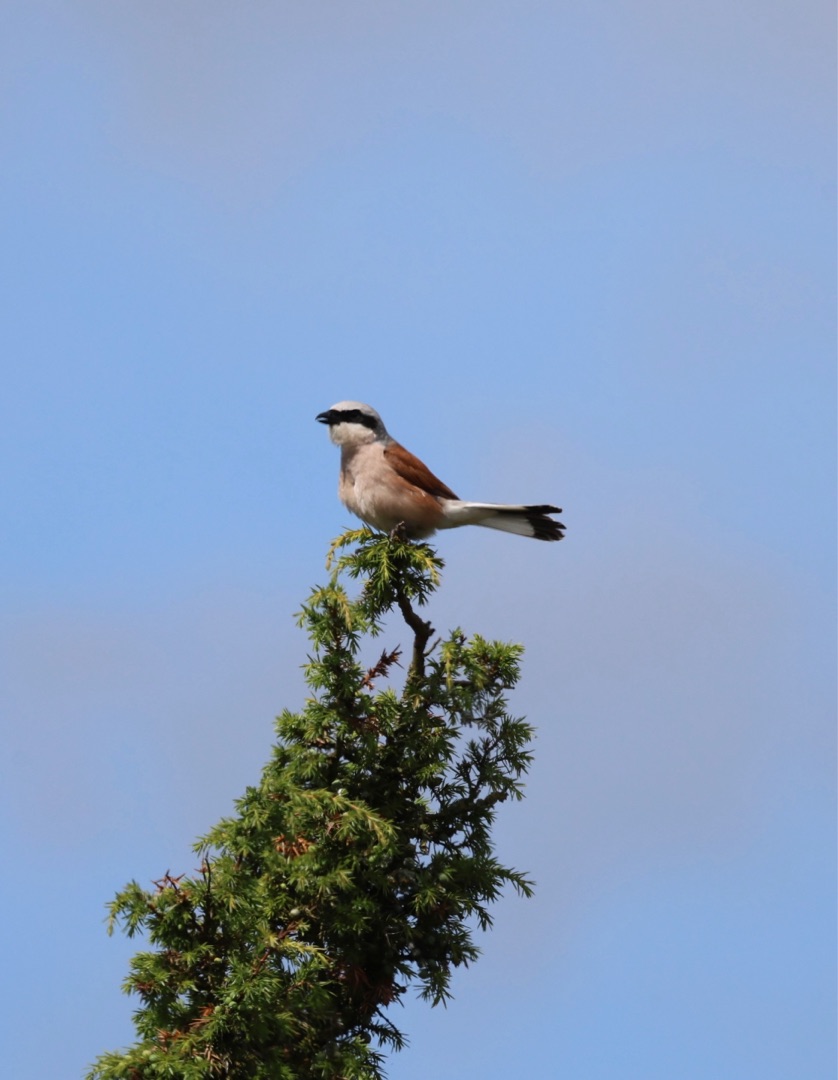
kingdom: Animalia
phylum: Chordata
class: Aves
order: Passeriformes
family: Laniidae
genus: Lanius
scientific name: Lanius collurio
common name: Rødrygget tornskade
